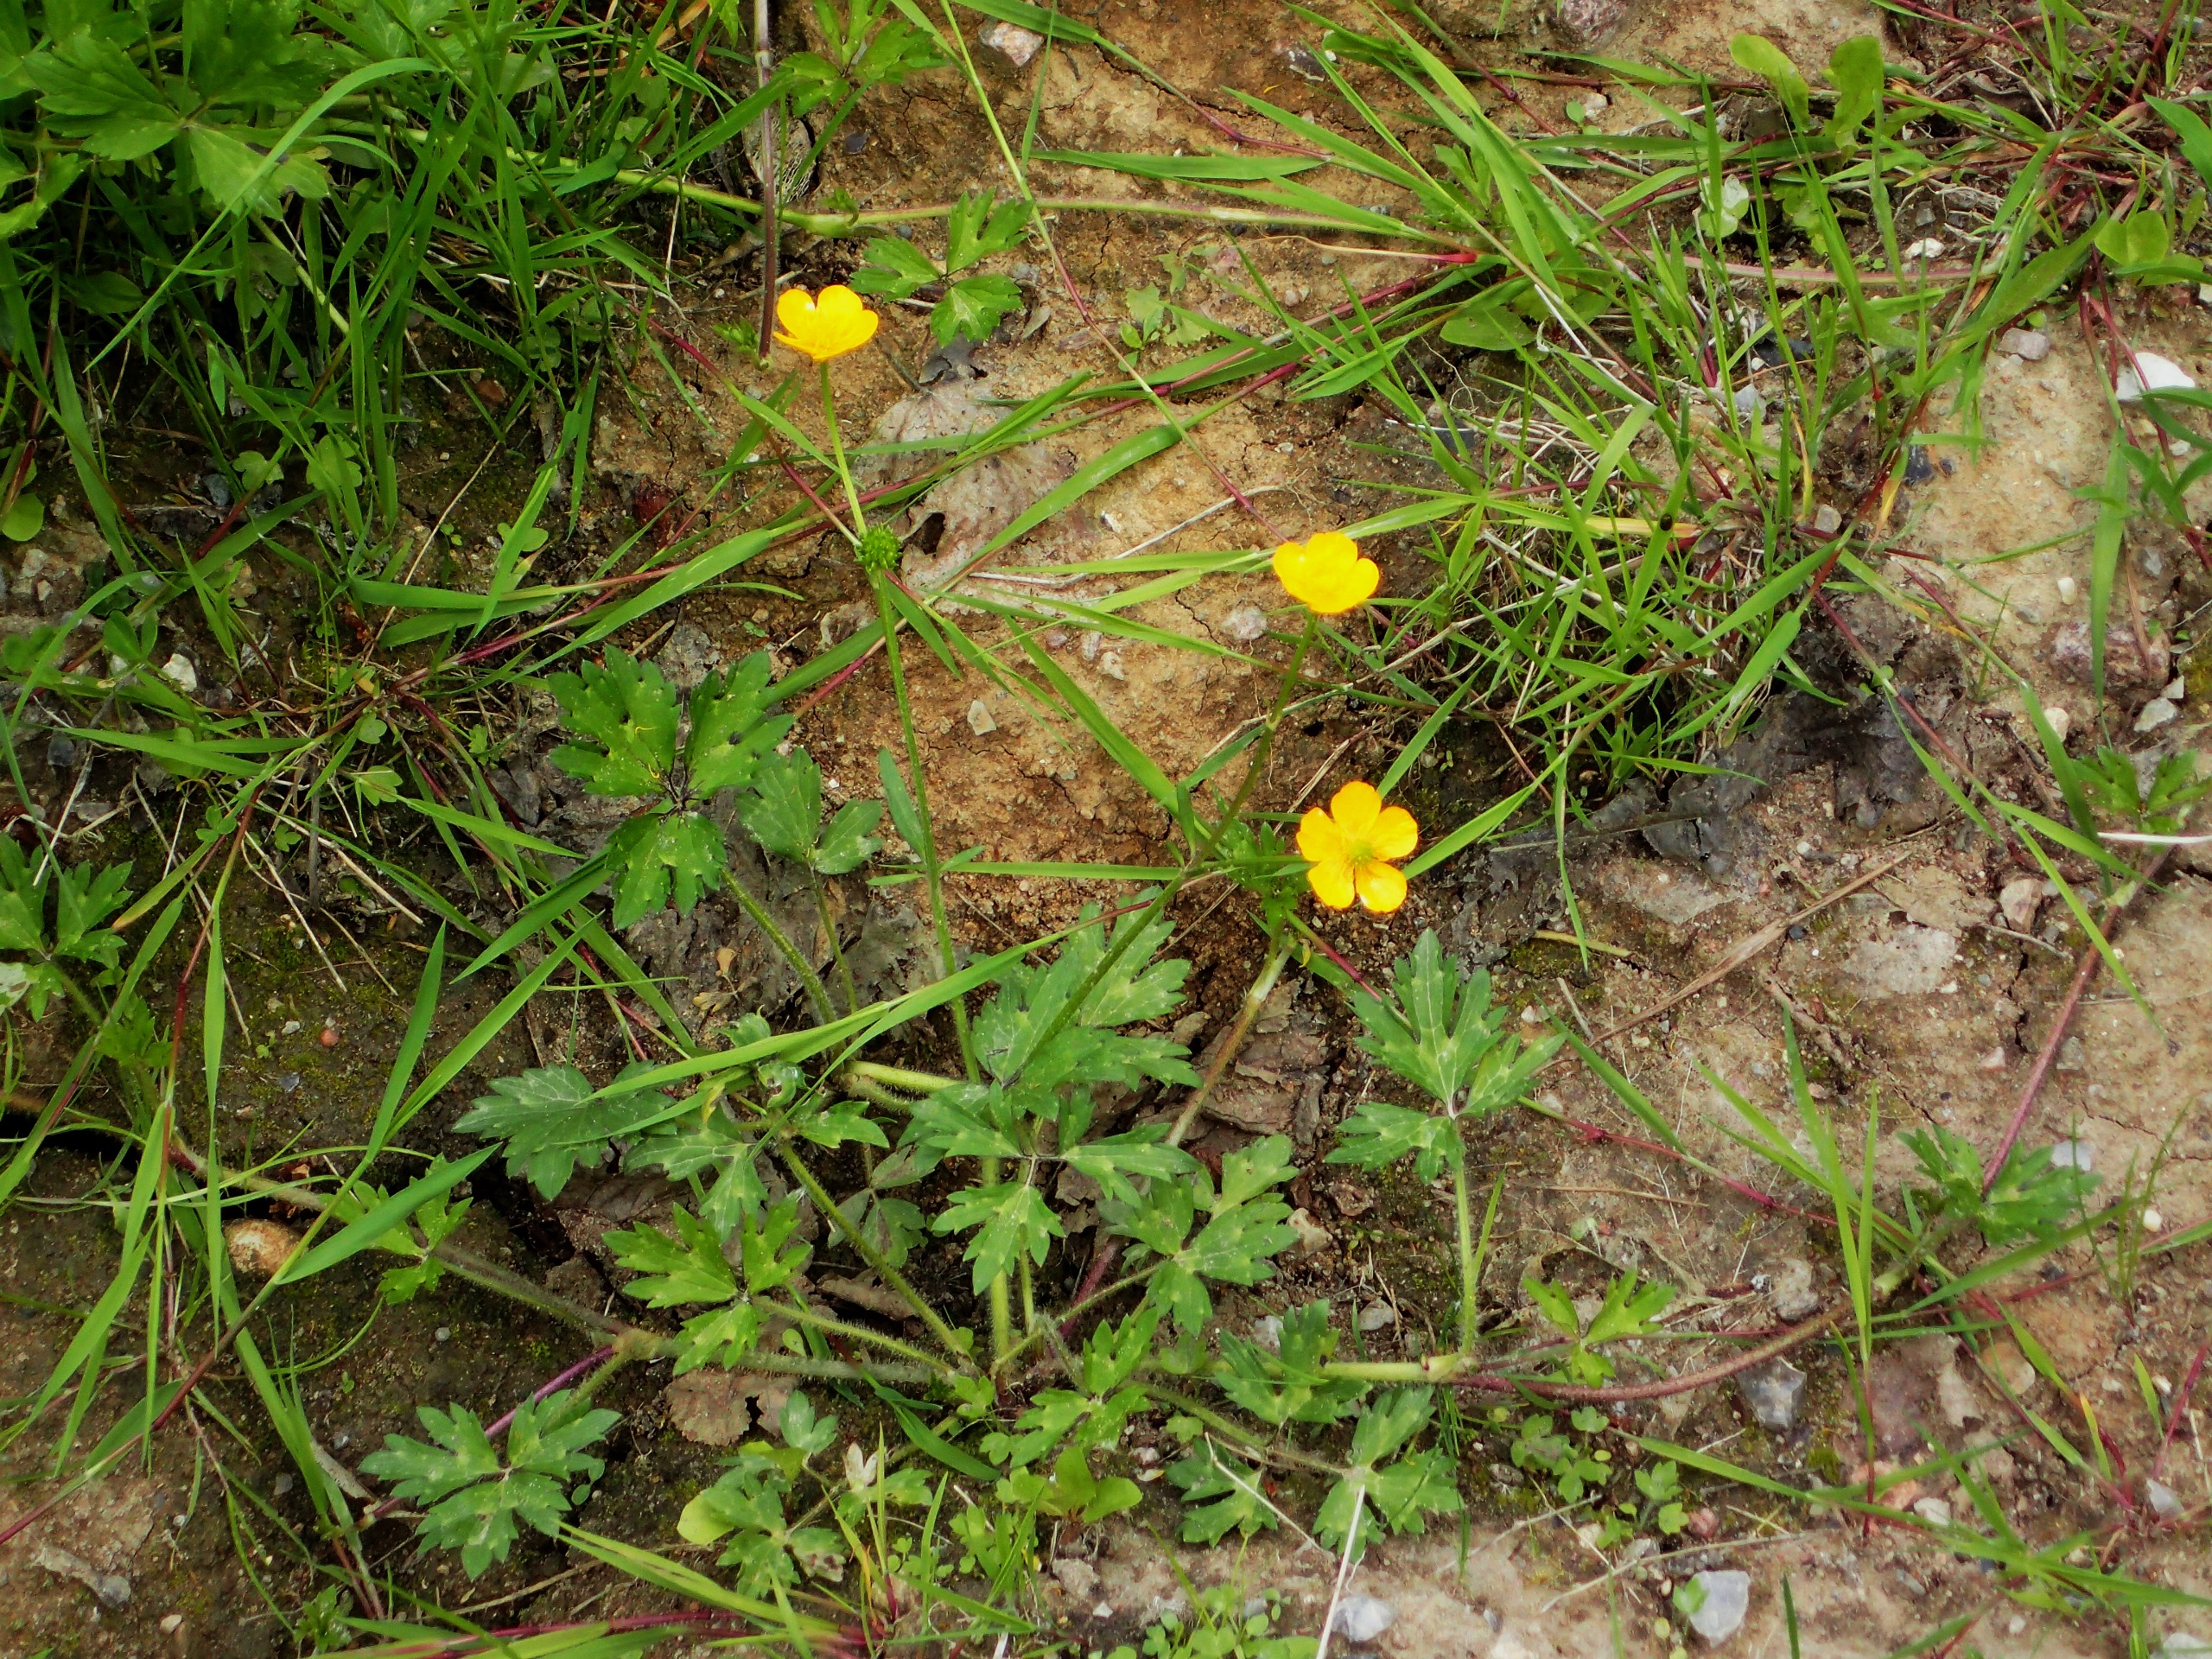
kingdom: Plantae
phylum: Tracheophyta
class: Magnoliopsida
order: Ranunculales
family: Ranunculaceae
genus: Ranunculus
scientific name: Ranunculus repens
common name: Lav ranunkel
